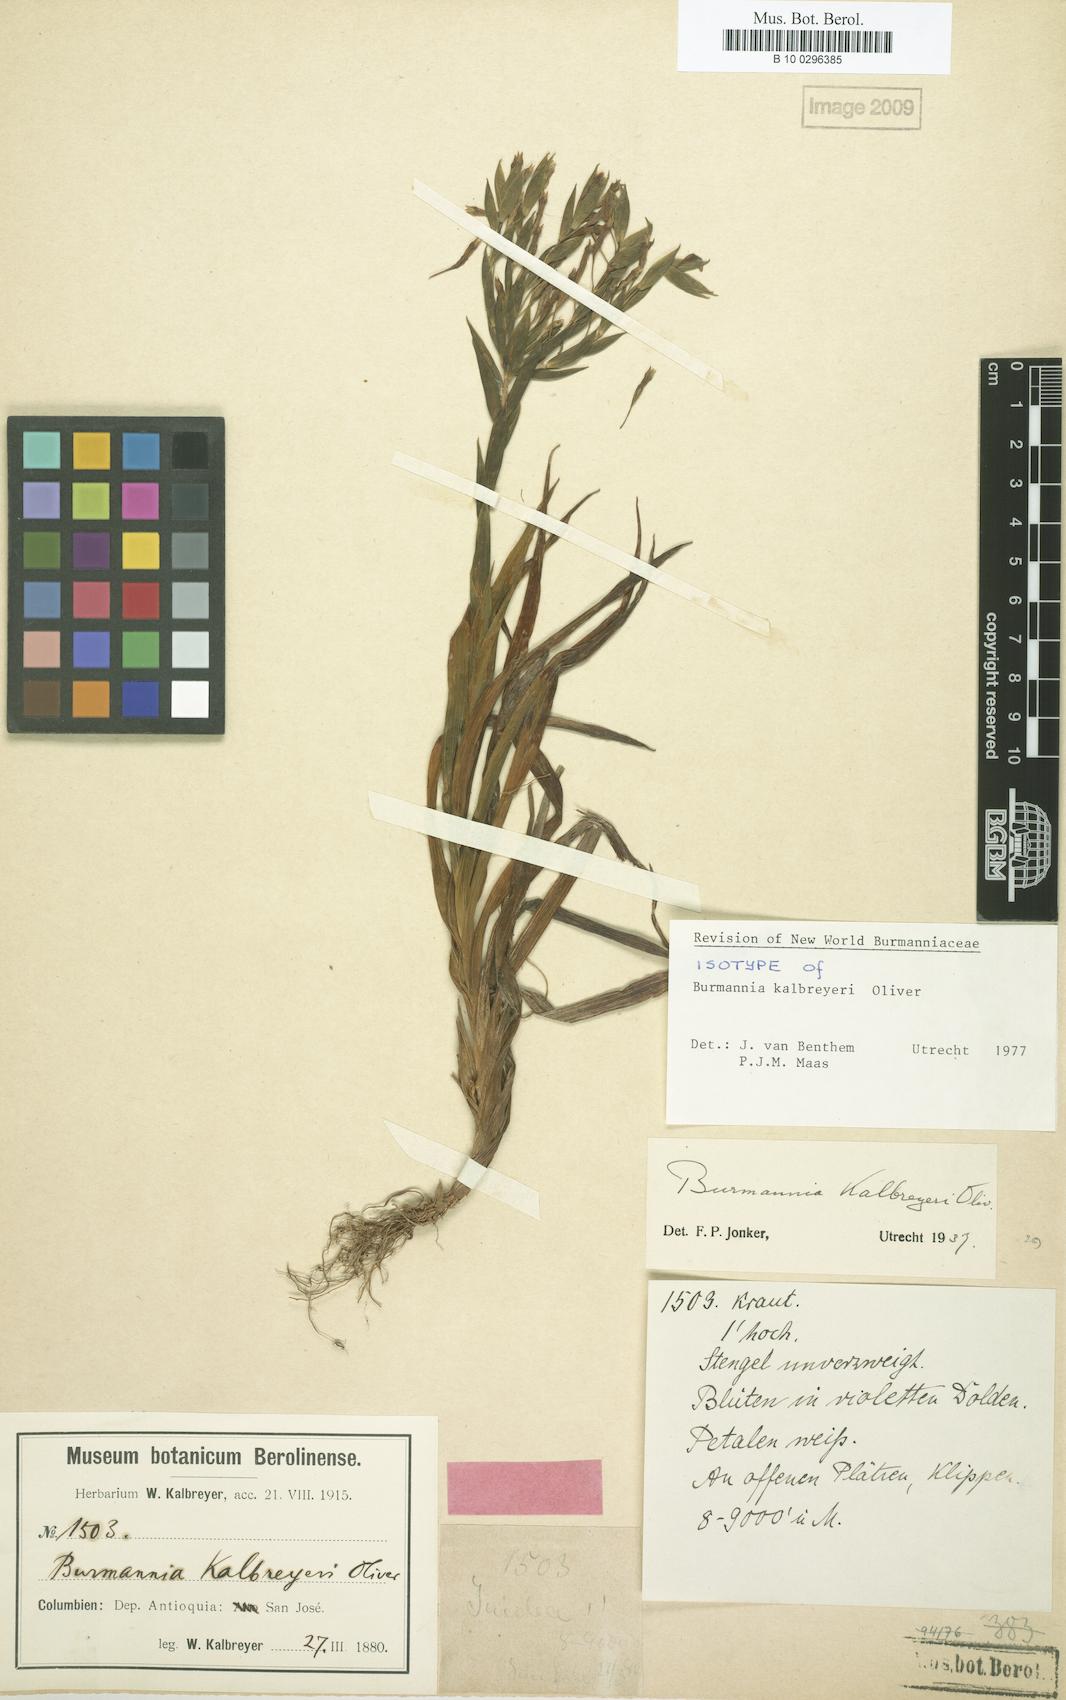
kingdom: Plantae
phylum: Tracheophyta
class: Liliopsida
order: Dioscoreales
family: Burmanniaceae
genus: Burmannia
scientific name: Burmannia kalbreyeri
